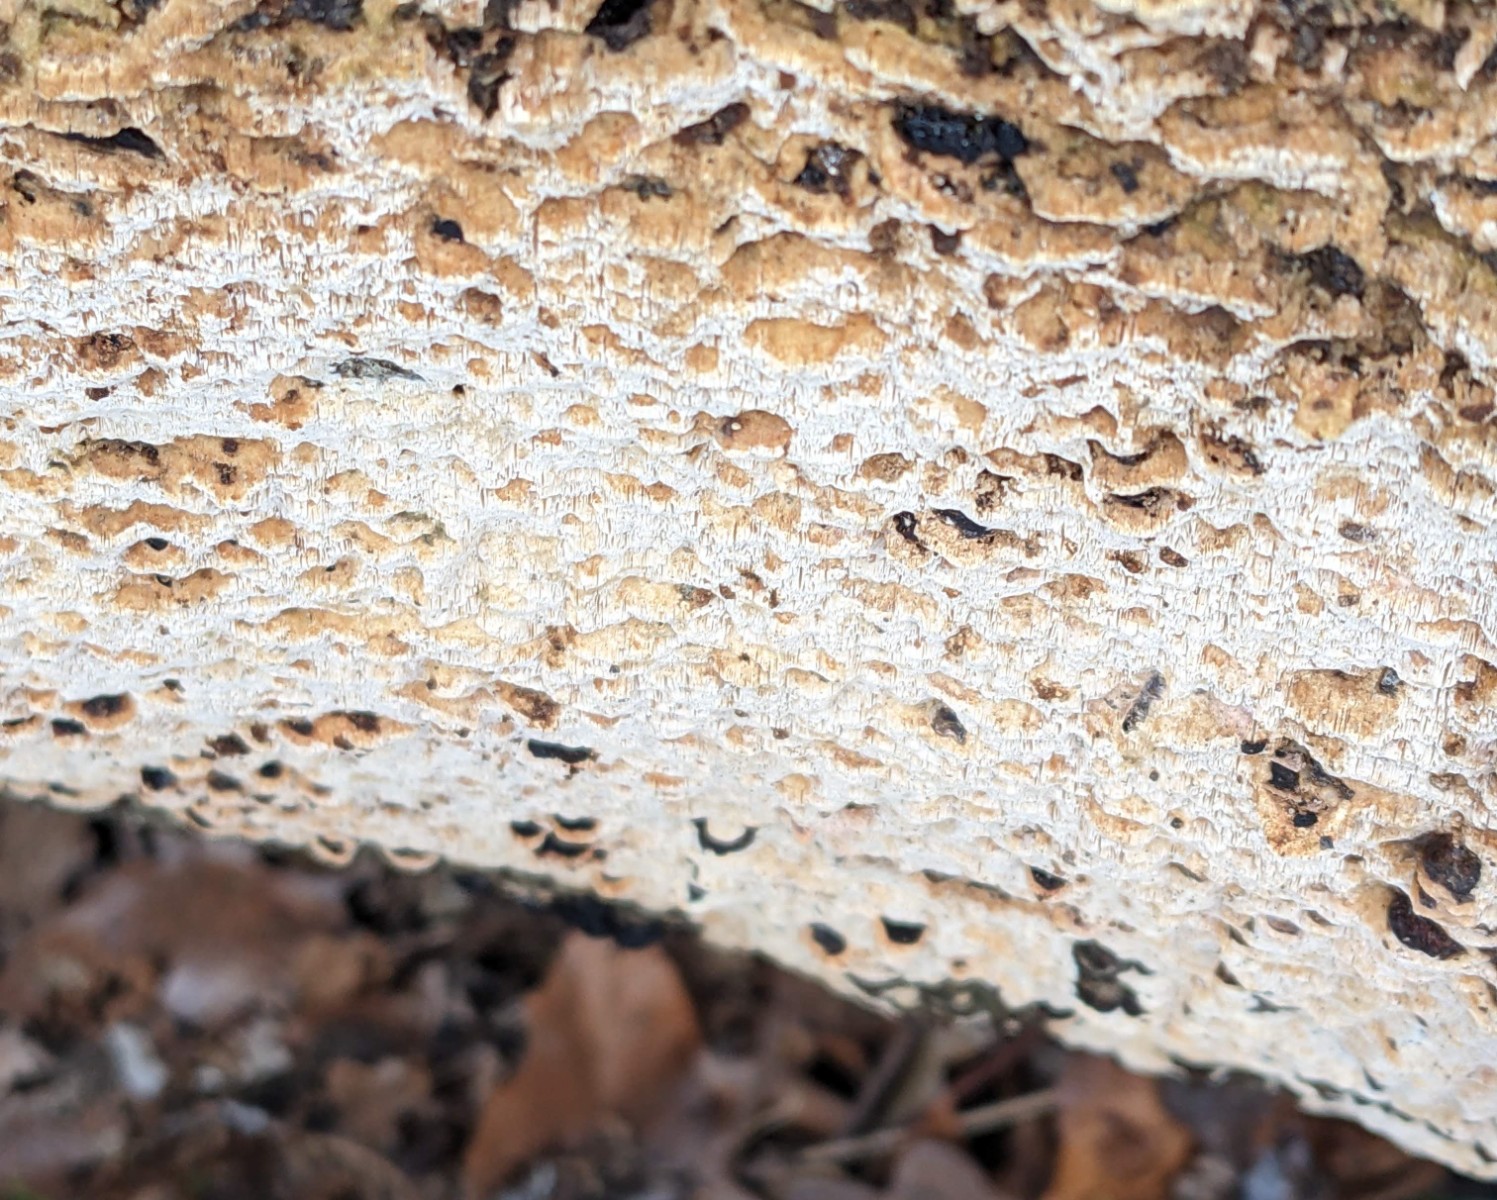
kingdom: Fungi
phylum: Basidiomycota
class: Agaricomycetes
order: Polyporales
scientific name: Polyporales
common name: poresvampordenen
